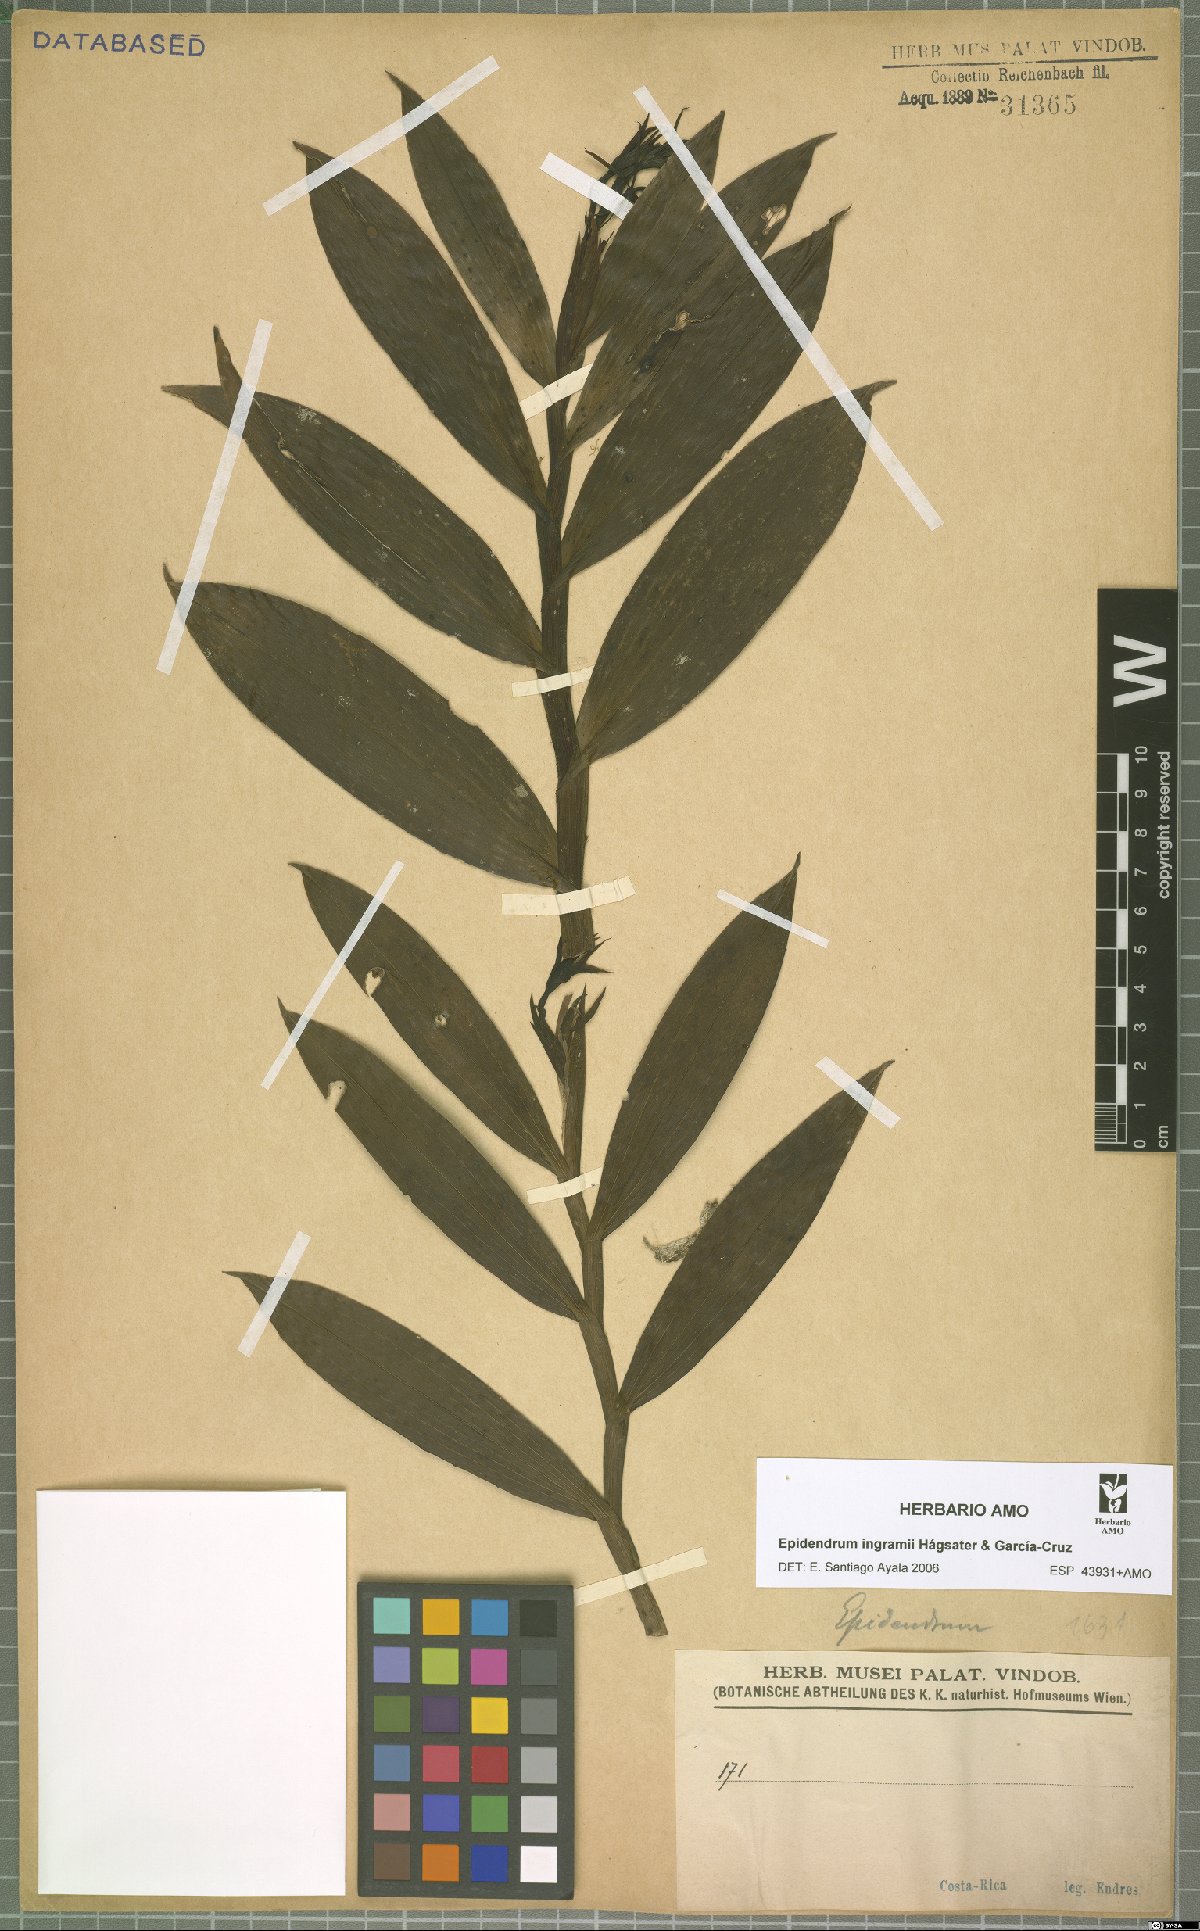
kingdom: Plantae
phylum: Tracheophyta
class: Liliopsida
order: Asparagales
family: Orchidaceae
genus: Epidendrum
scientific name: Epidendrum ingramii
